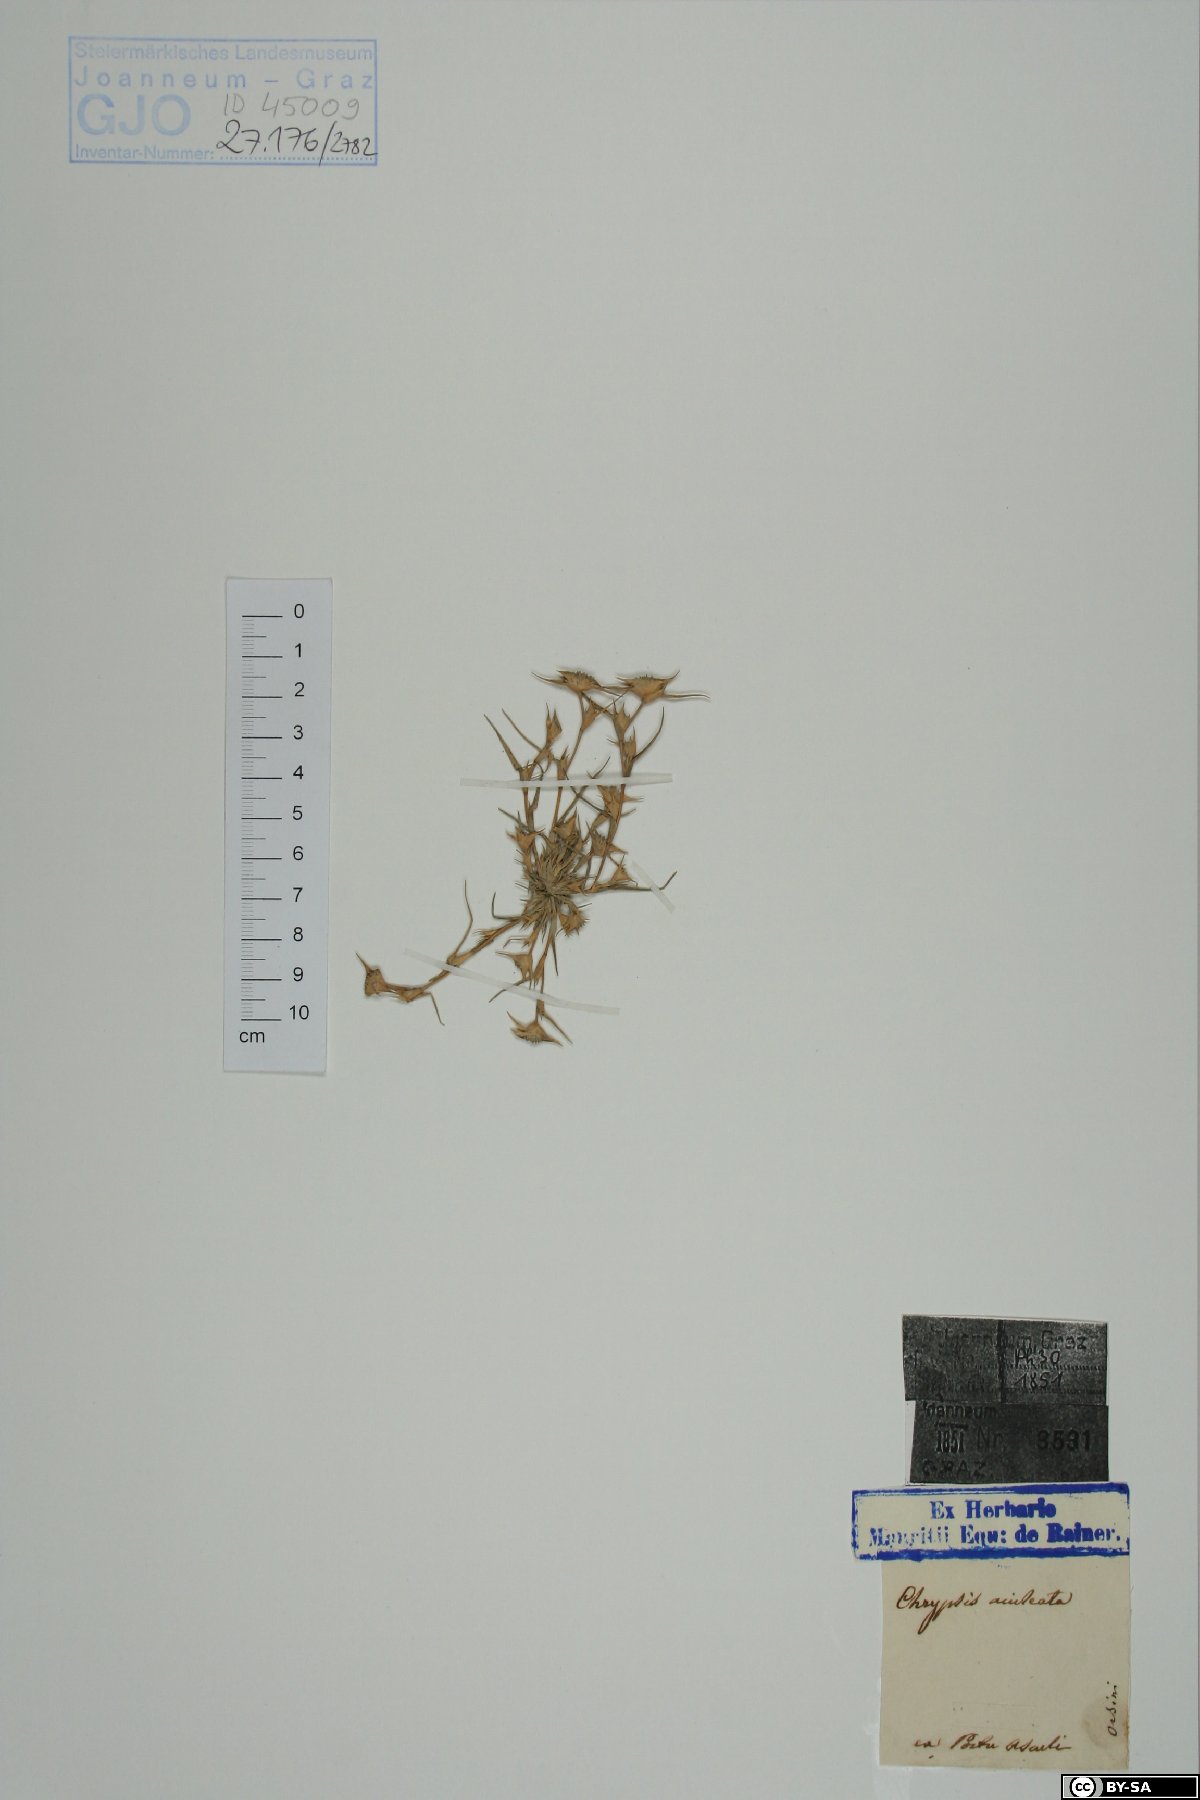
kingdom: Plantae
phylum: Tracheophyta
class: Liliopsida
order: Poales
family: Poaceae
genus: Sporobolus
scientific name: Sporobolus aculeatus
